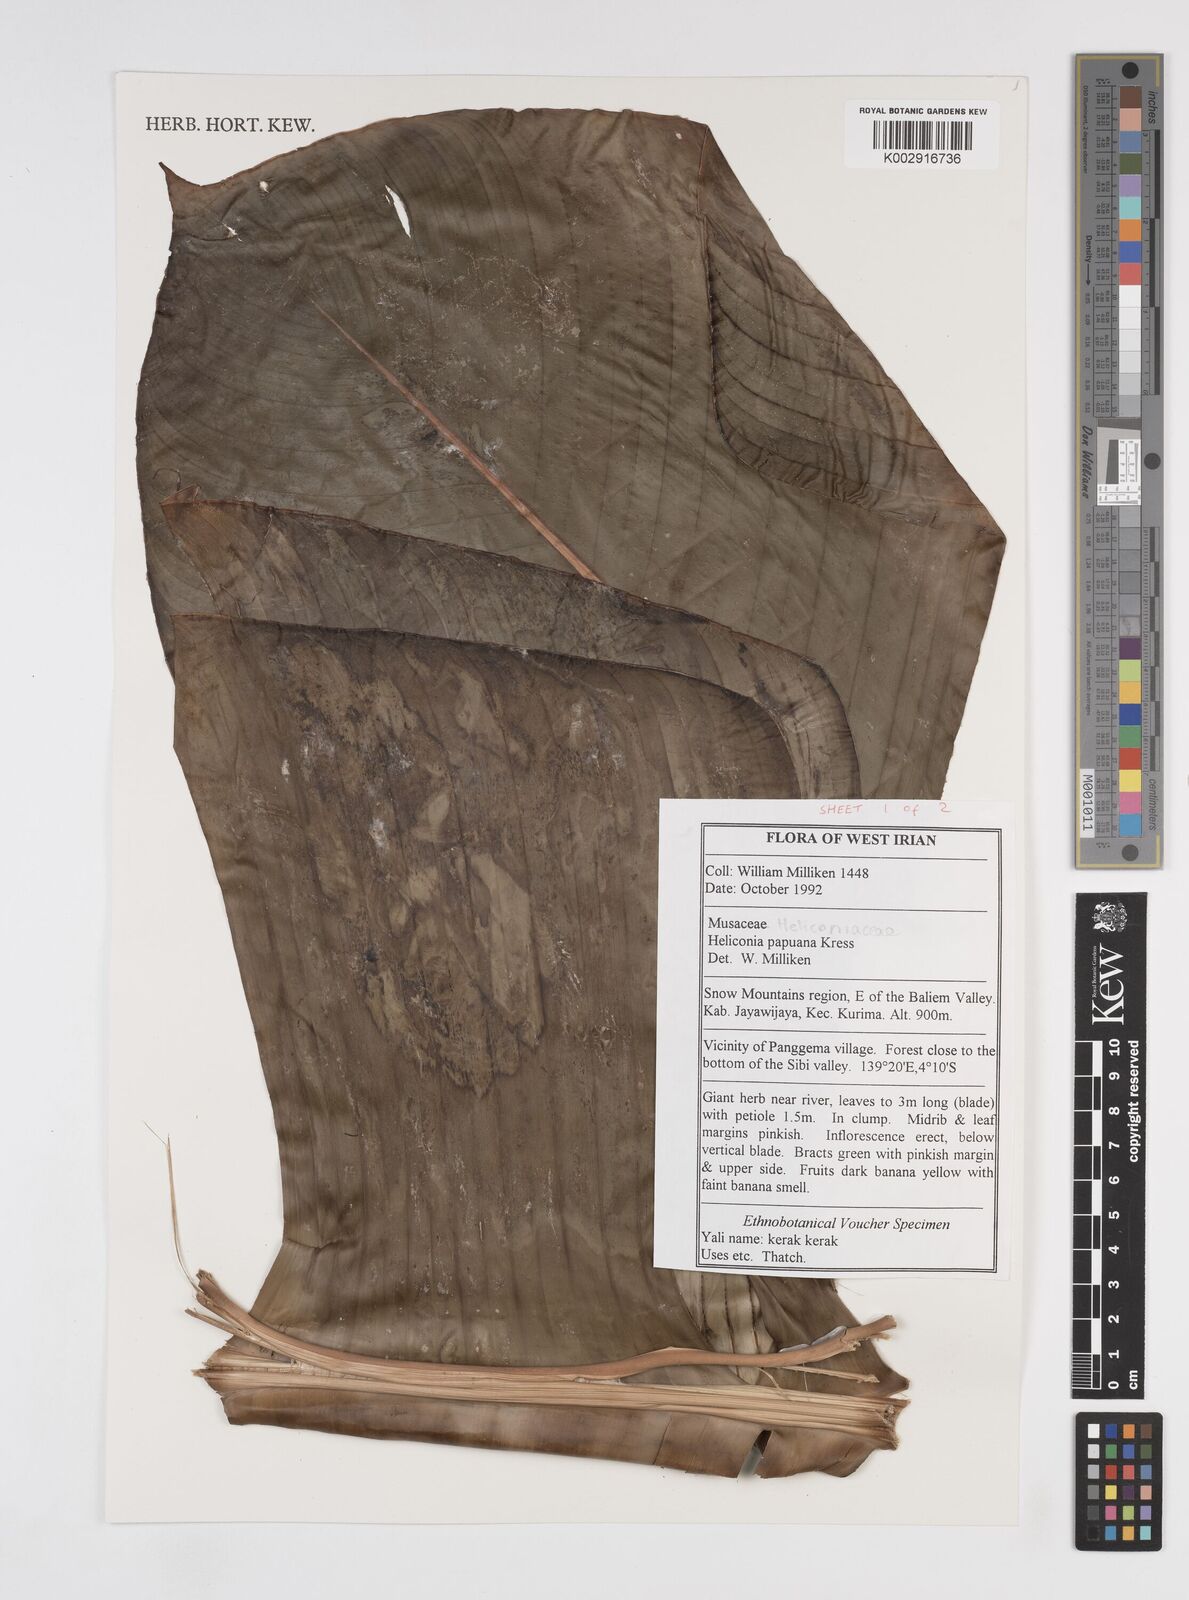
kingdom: Plantae
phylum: Tracheophyta
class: Liliopsida
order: Zingiberales
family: Heliconiaceae
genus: Heliconia
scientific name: Heliconia papuana
